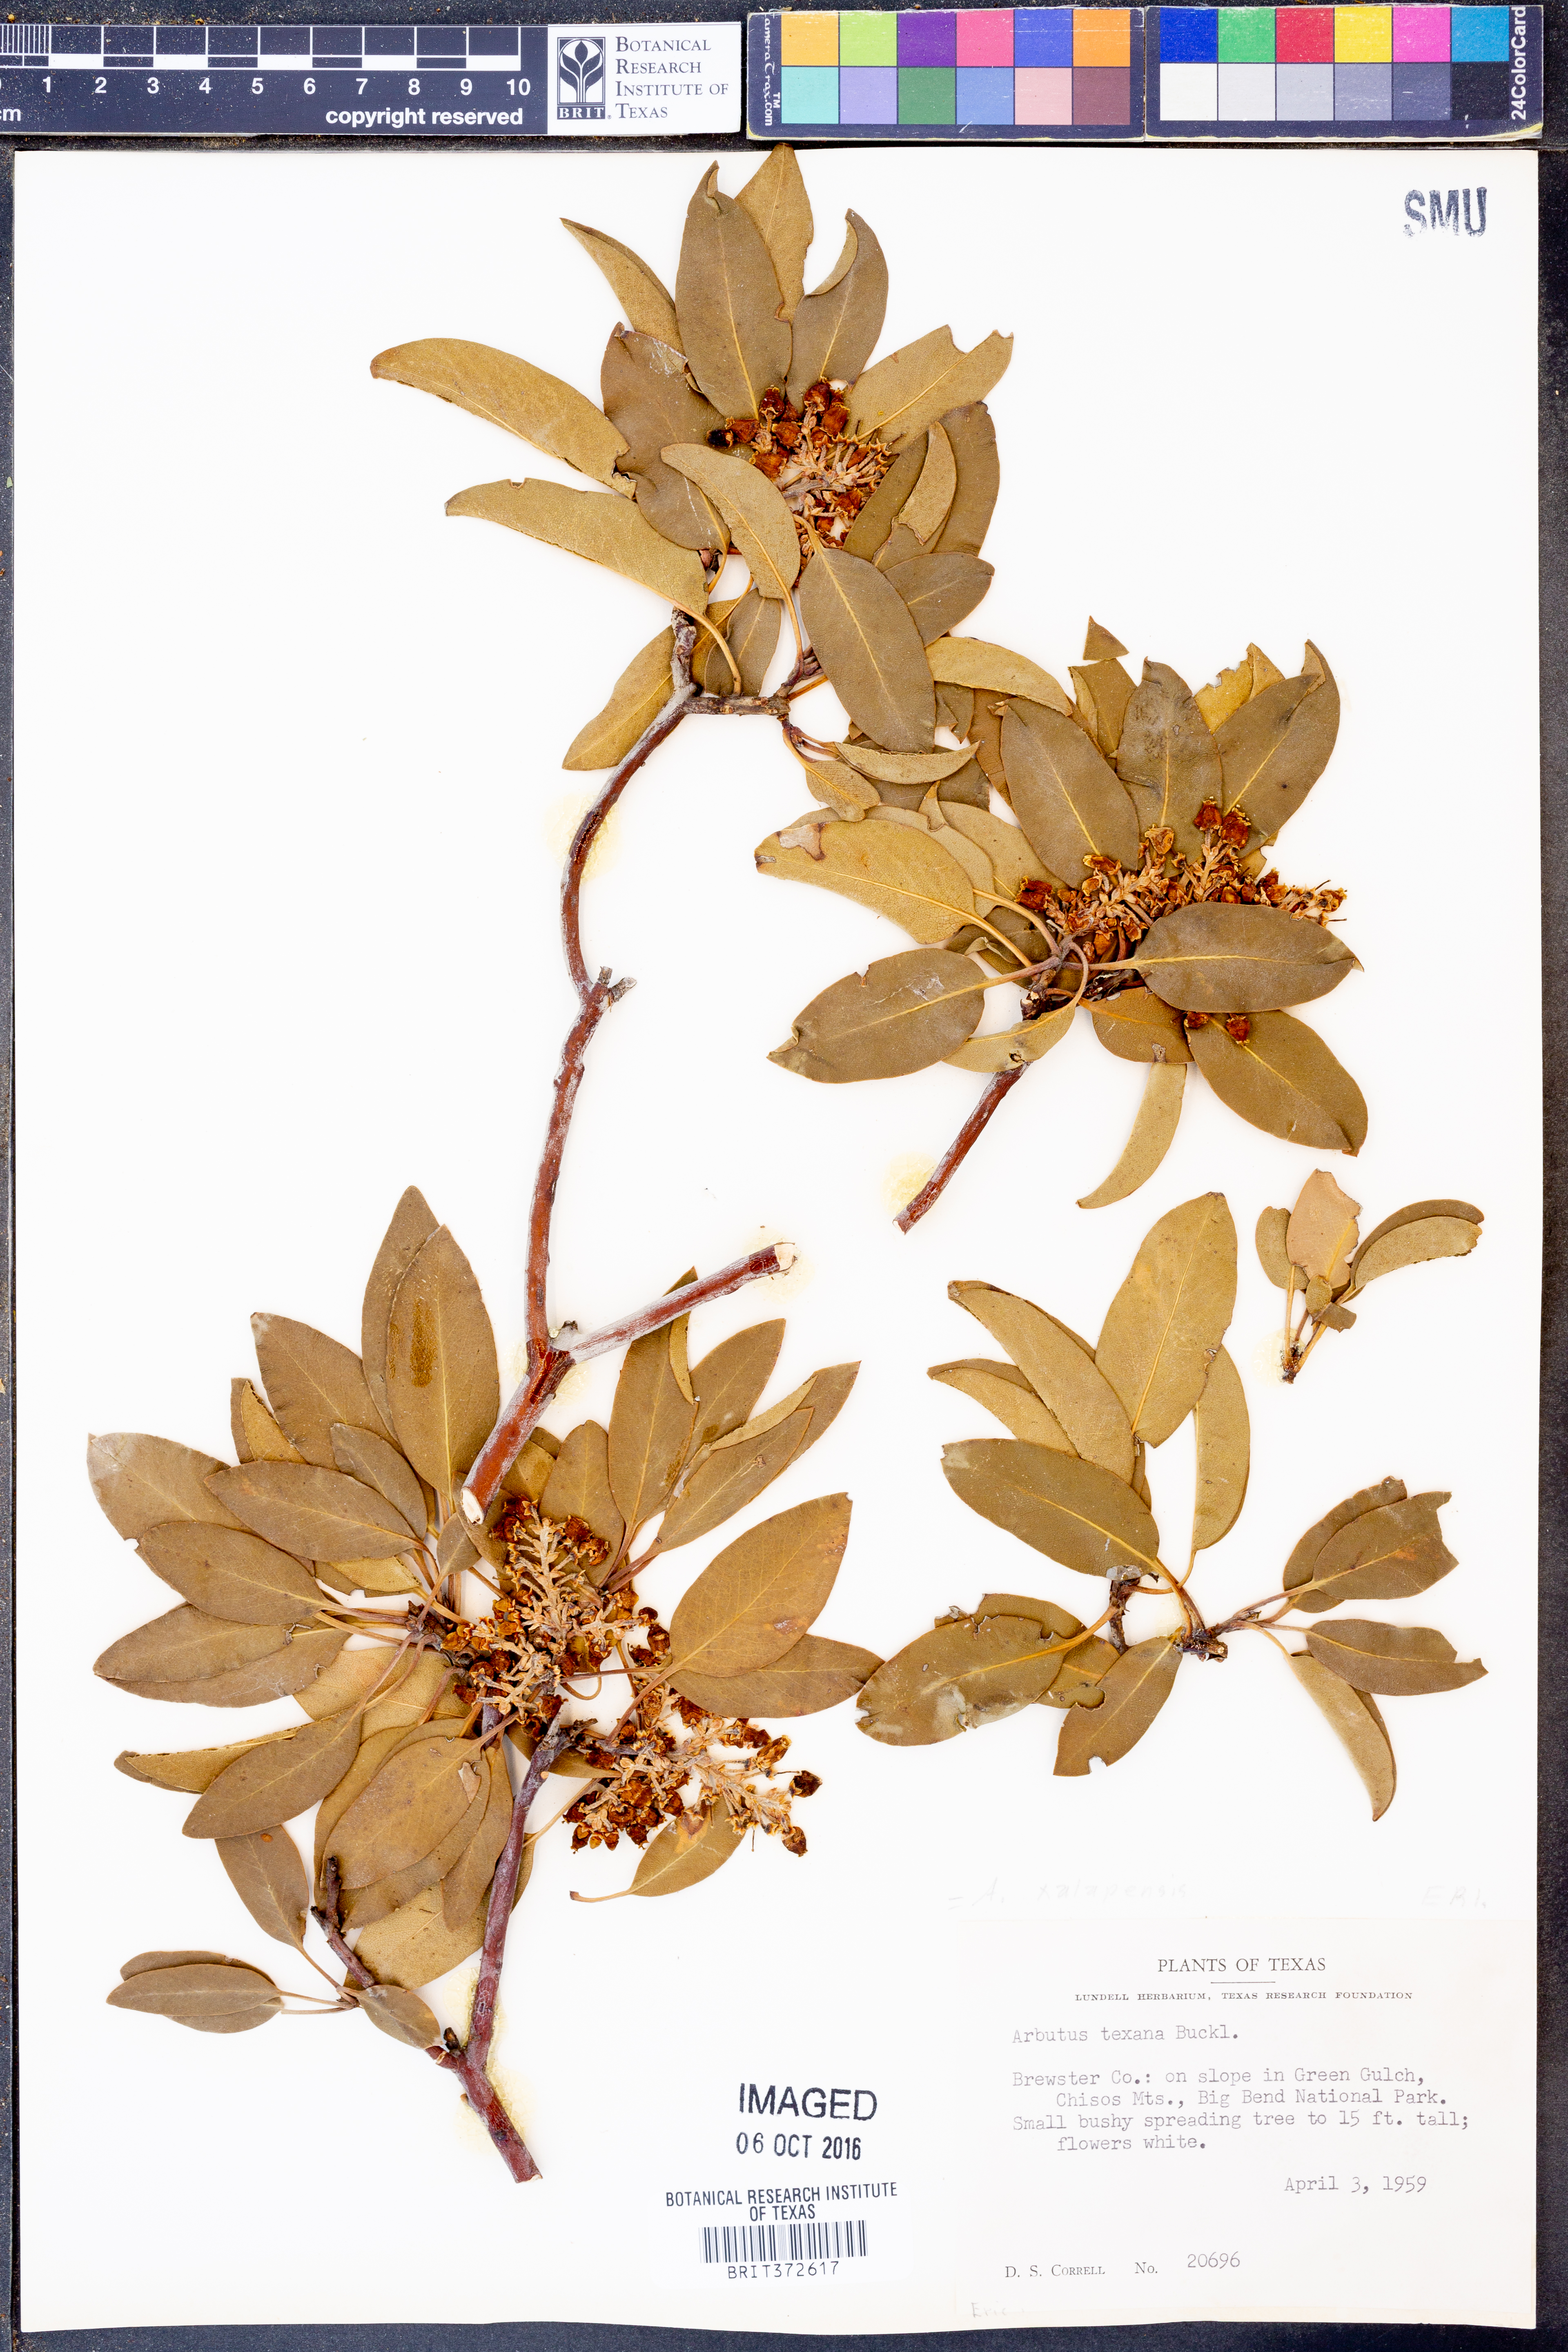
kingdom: Plantae
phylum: Tracheophyta
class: Magnoliopsida
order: Ericales
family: Ericaceae
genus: Arbutus
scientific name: Arbutus xalapensis
